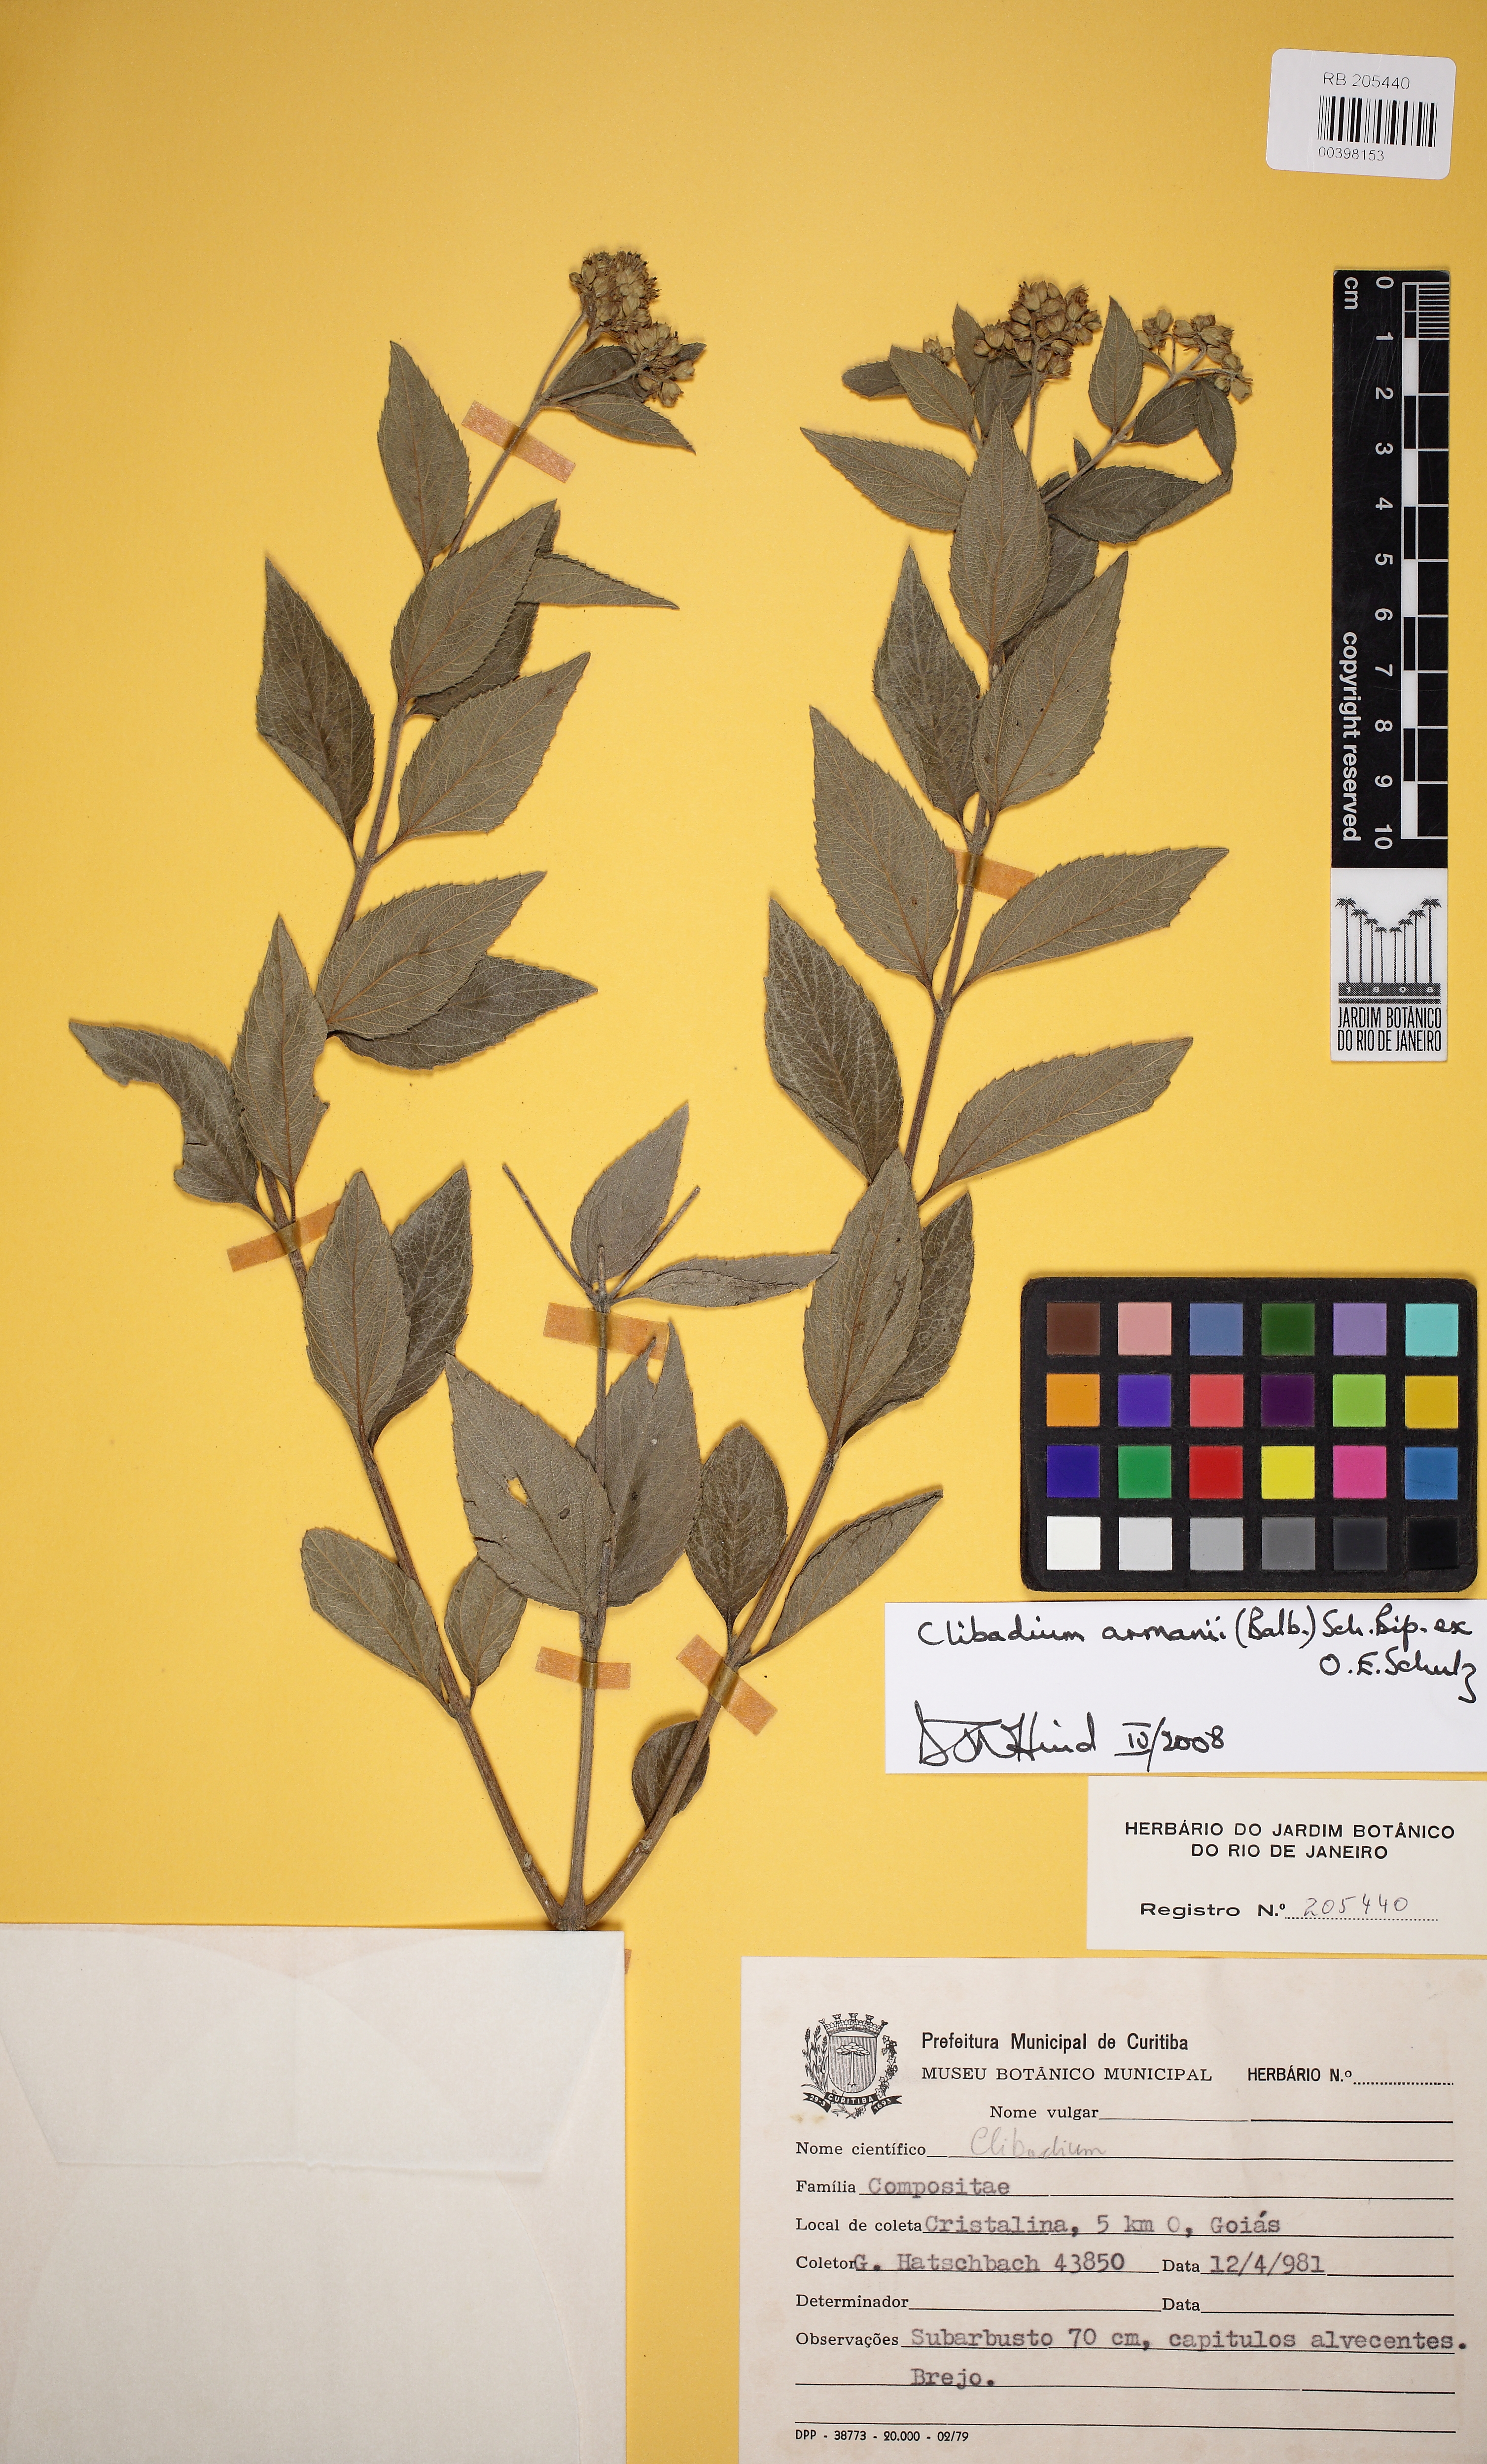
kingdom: Plantae
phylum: Tracheophyta
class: Magnoliopsida
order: Asterales
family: Asteraceae
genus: Clibadium
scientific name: Clibadium armanii
